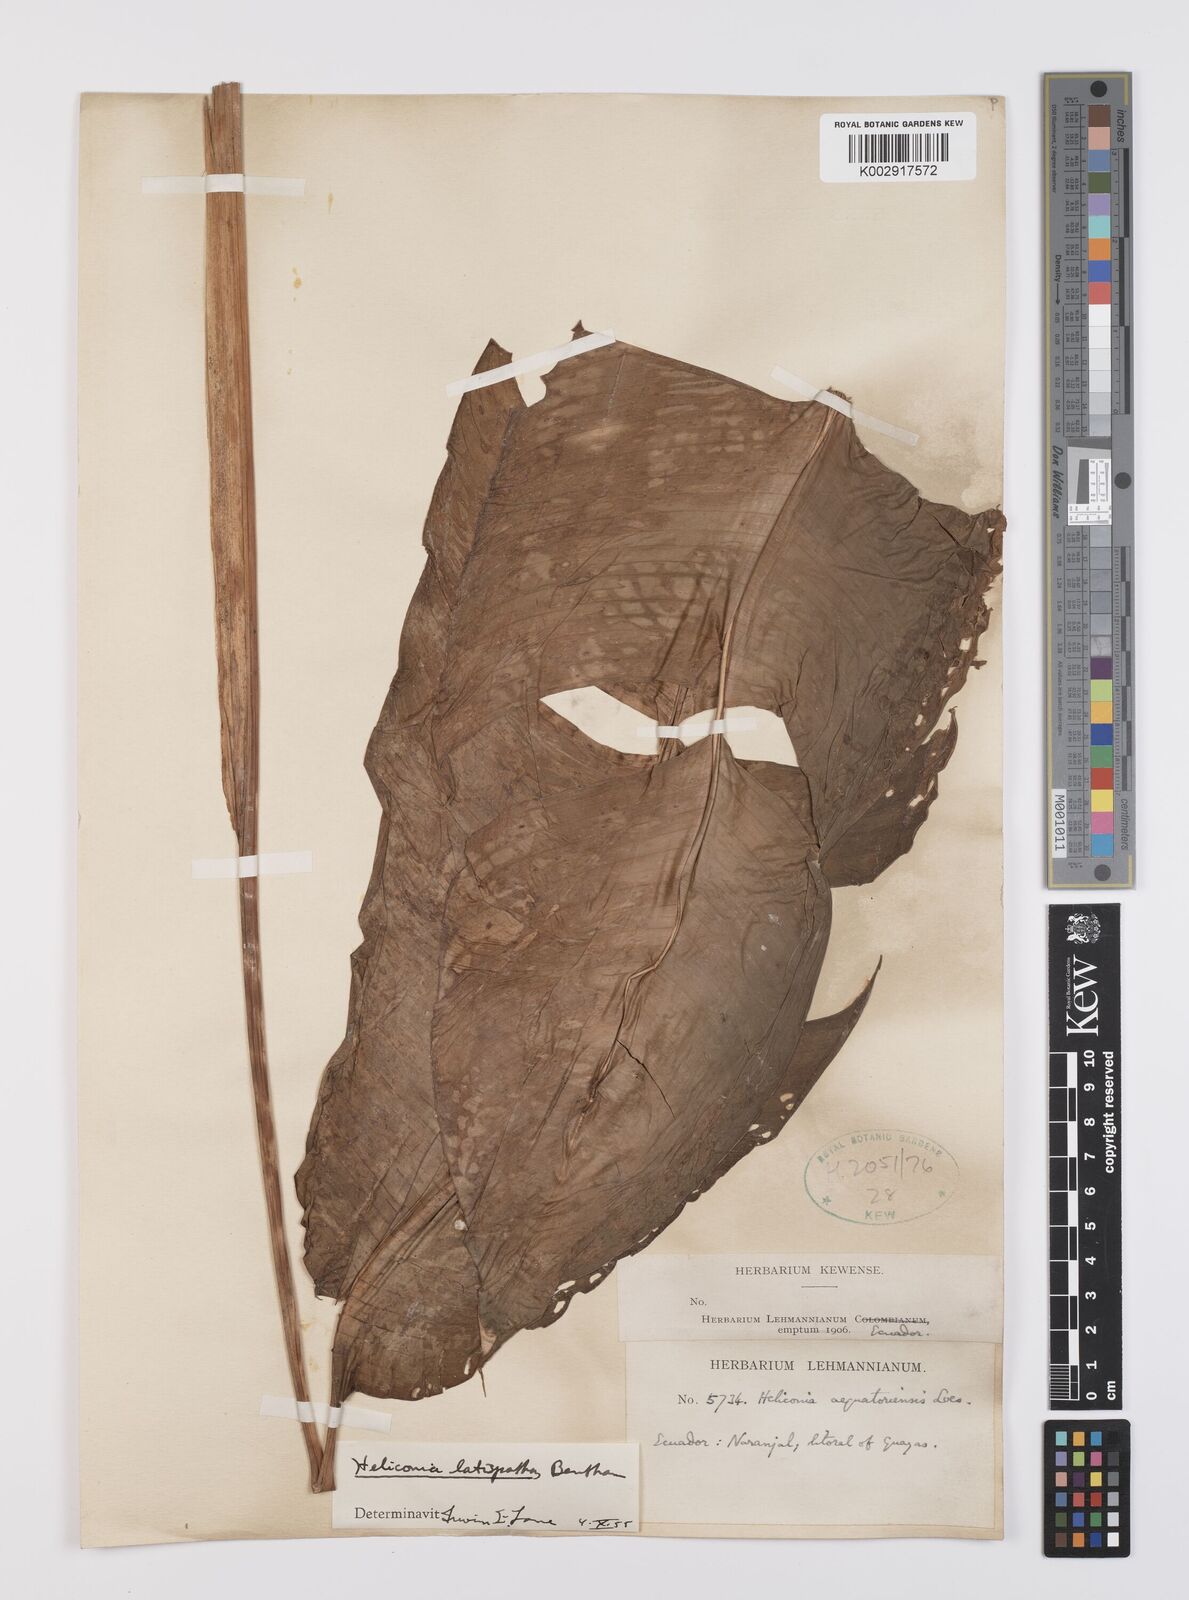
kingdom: Plantae
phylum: Tracheophyta
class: Liliopsida
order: Zingiberales
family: Heliconiaceae
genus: Heliconia
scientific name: Heliconia latispatha
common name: Expanded lobsterclaw
